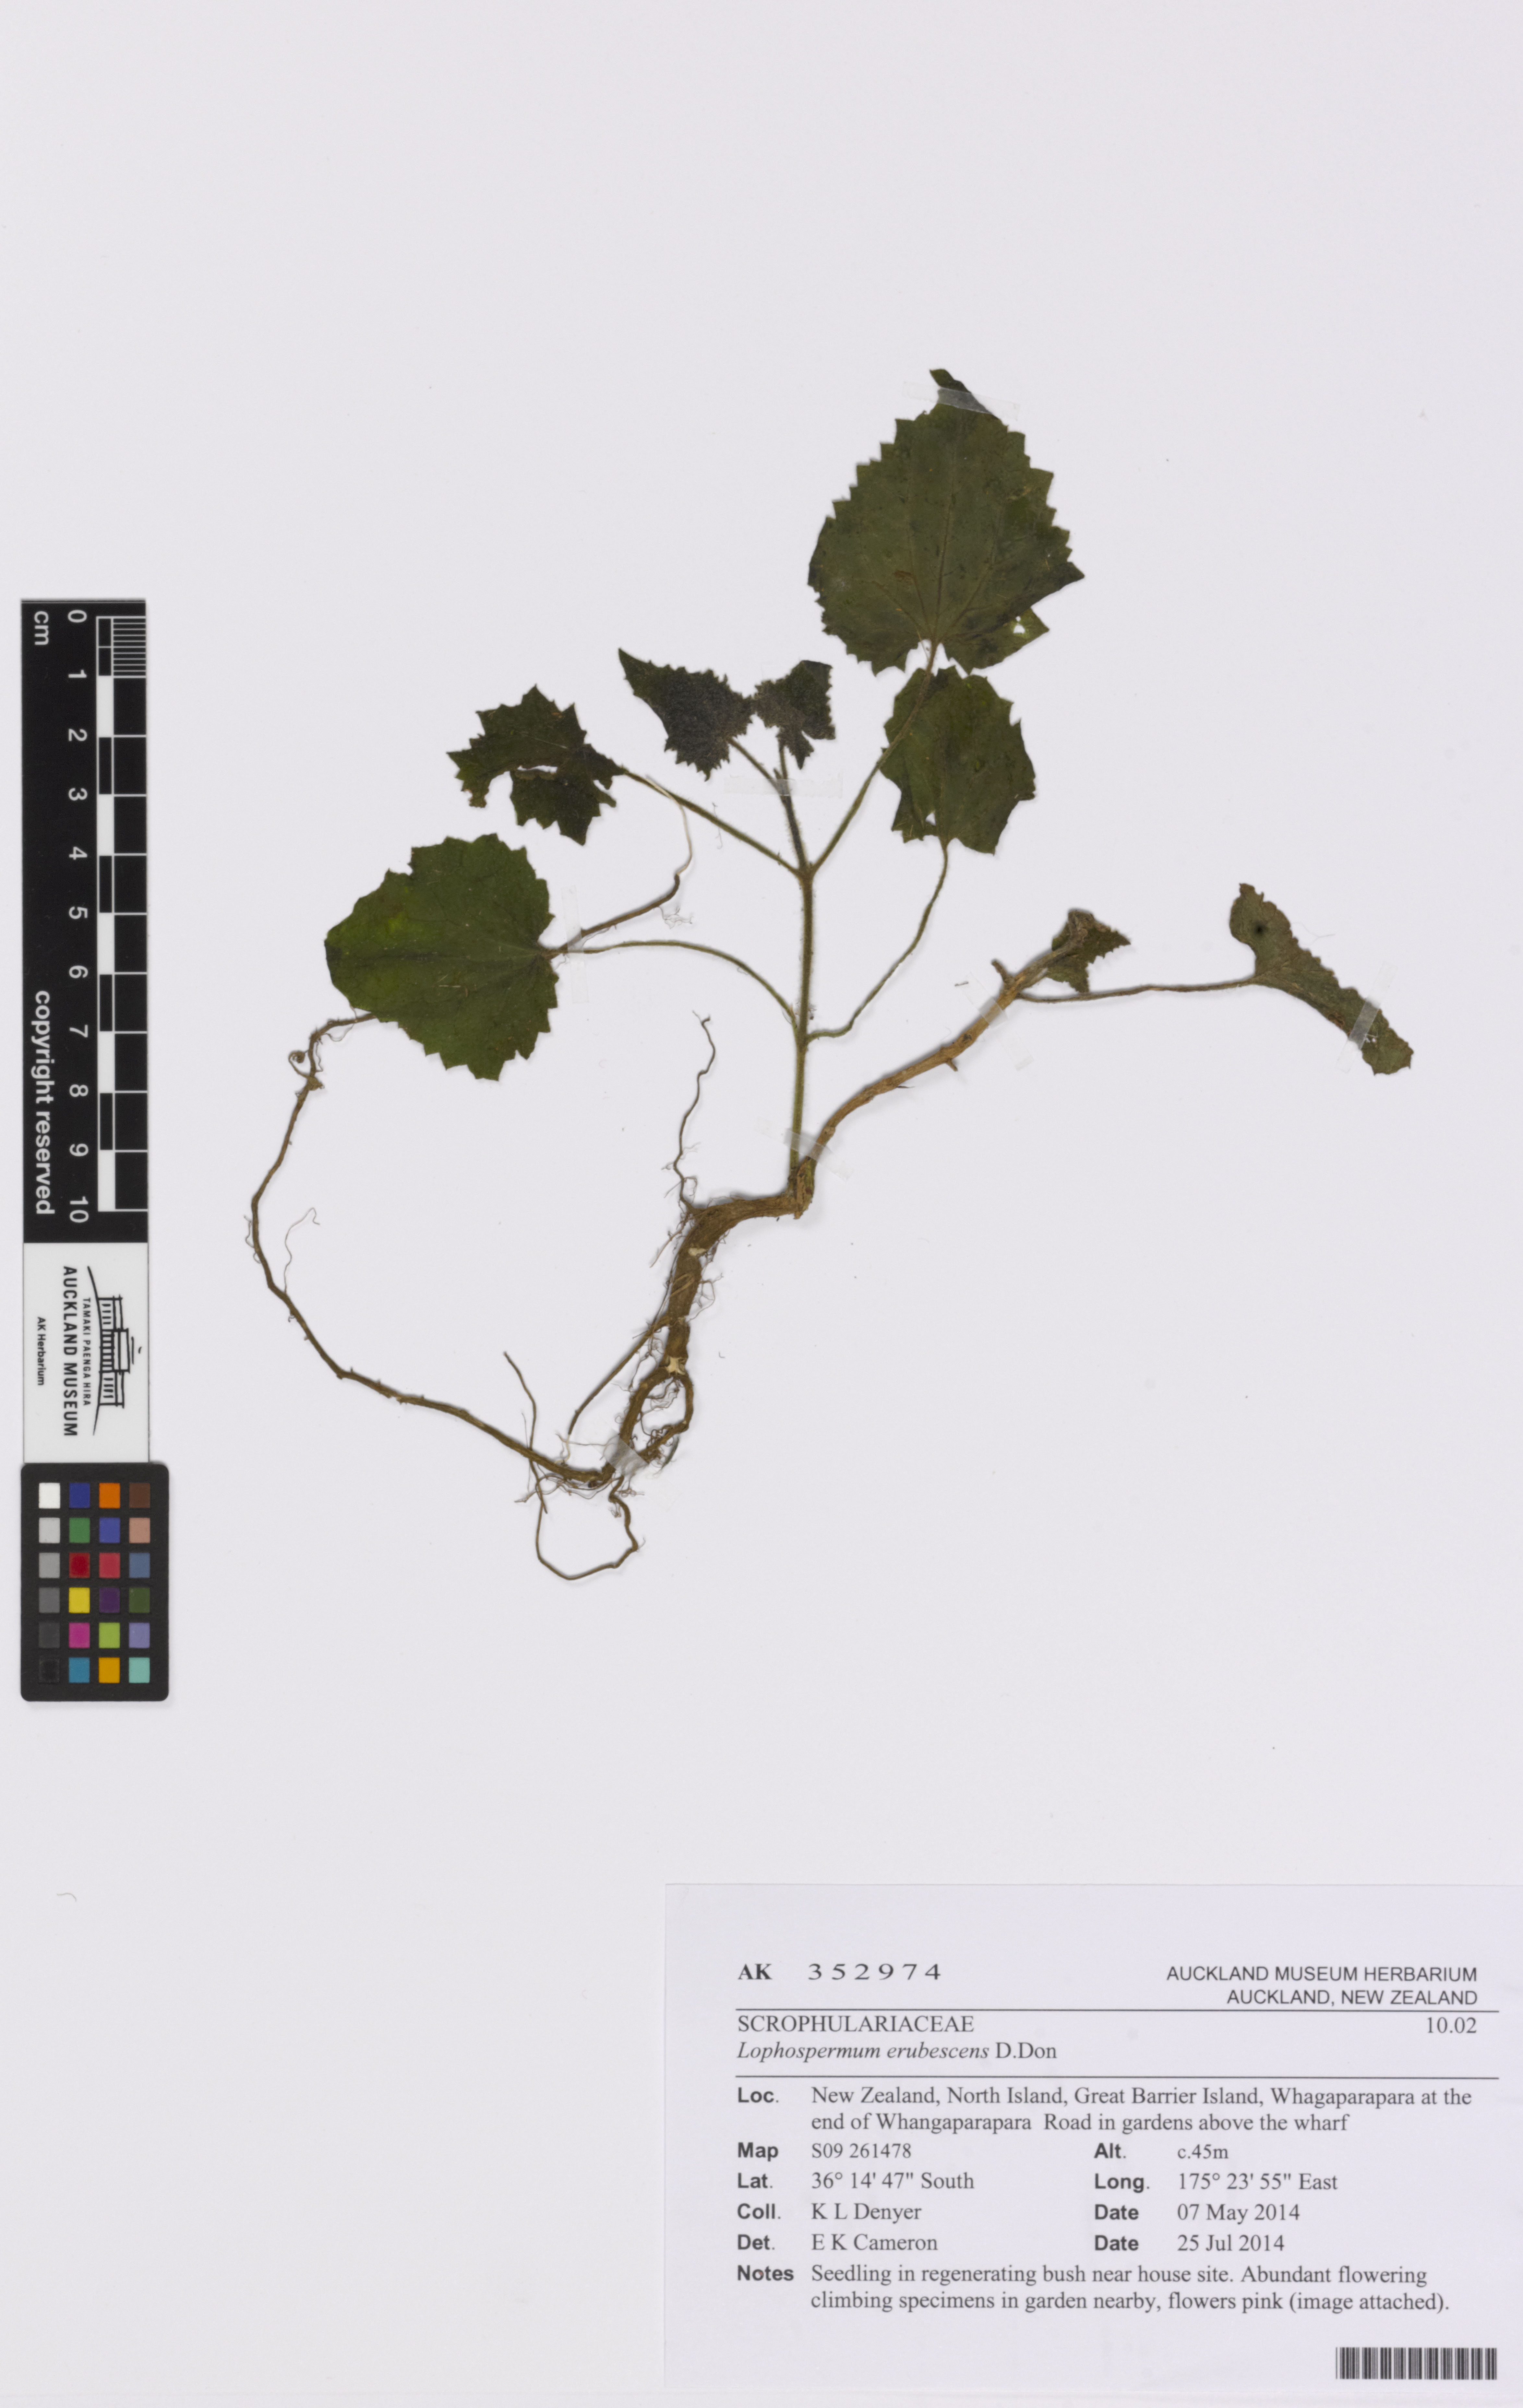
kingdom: Plantae
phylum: Tracheophyta
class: Magnoliopsida
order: Lamiales
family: Plantaginaceae
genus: Lophospermum
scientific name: Lophospermum erubescens
